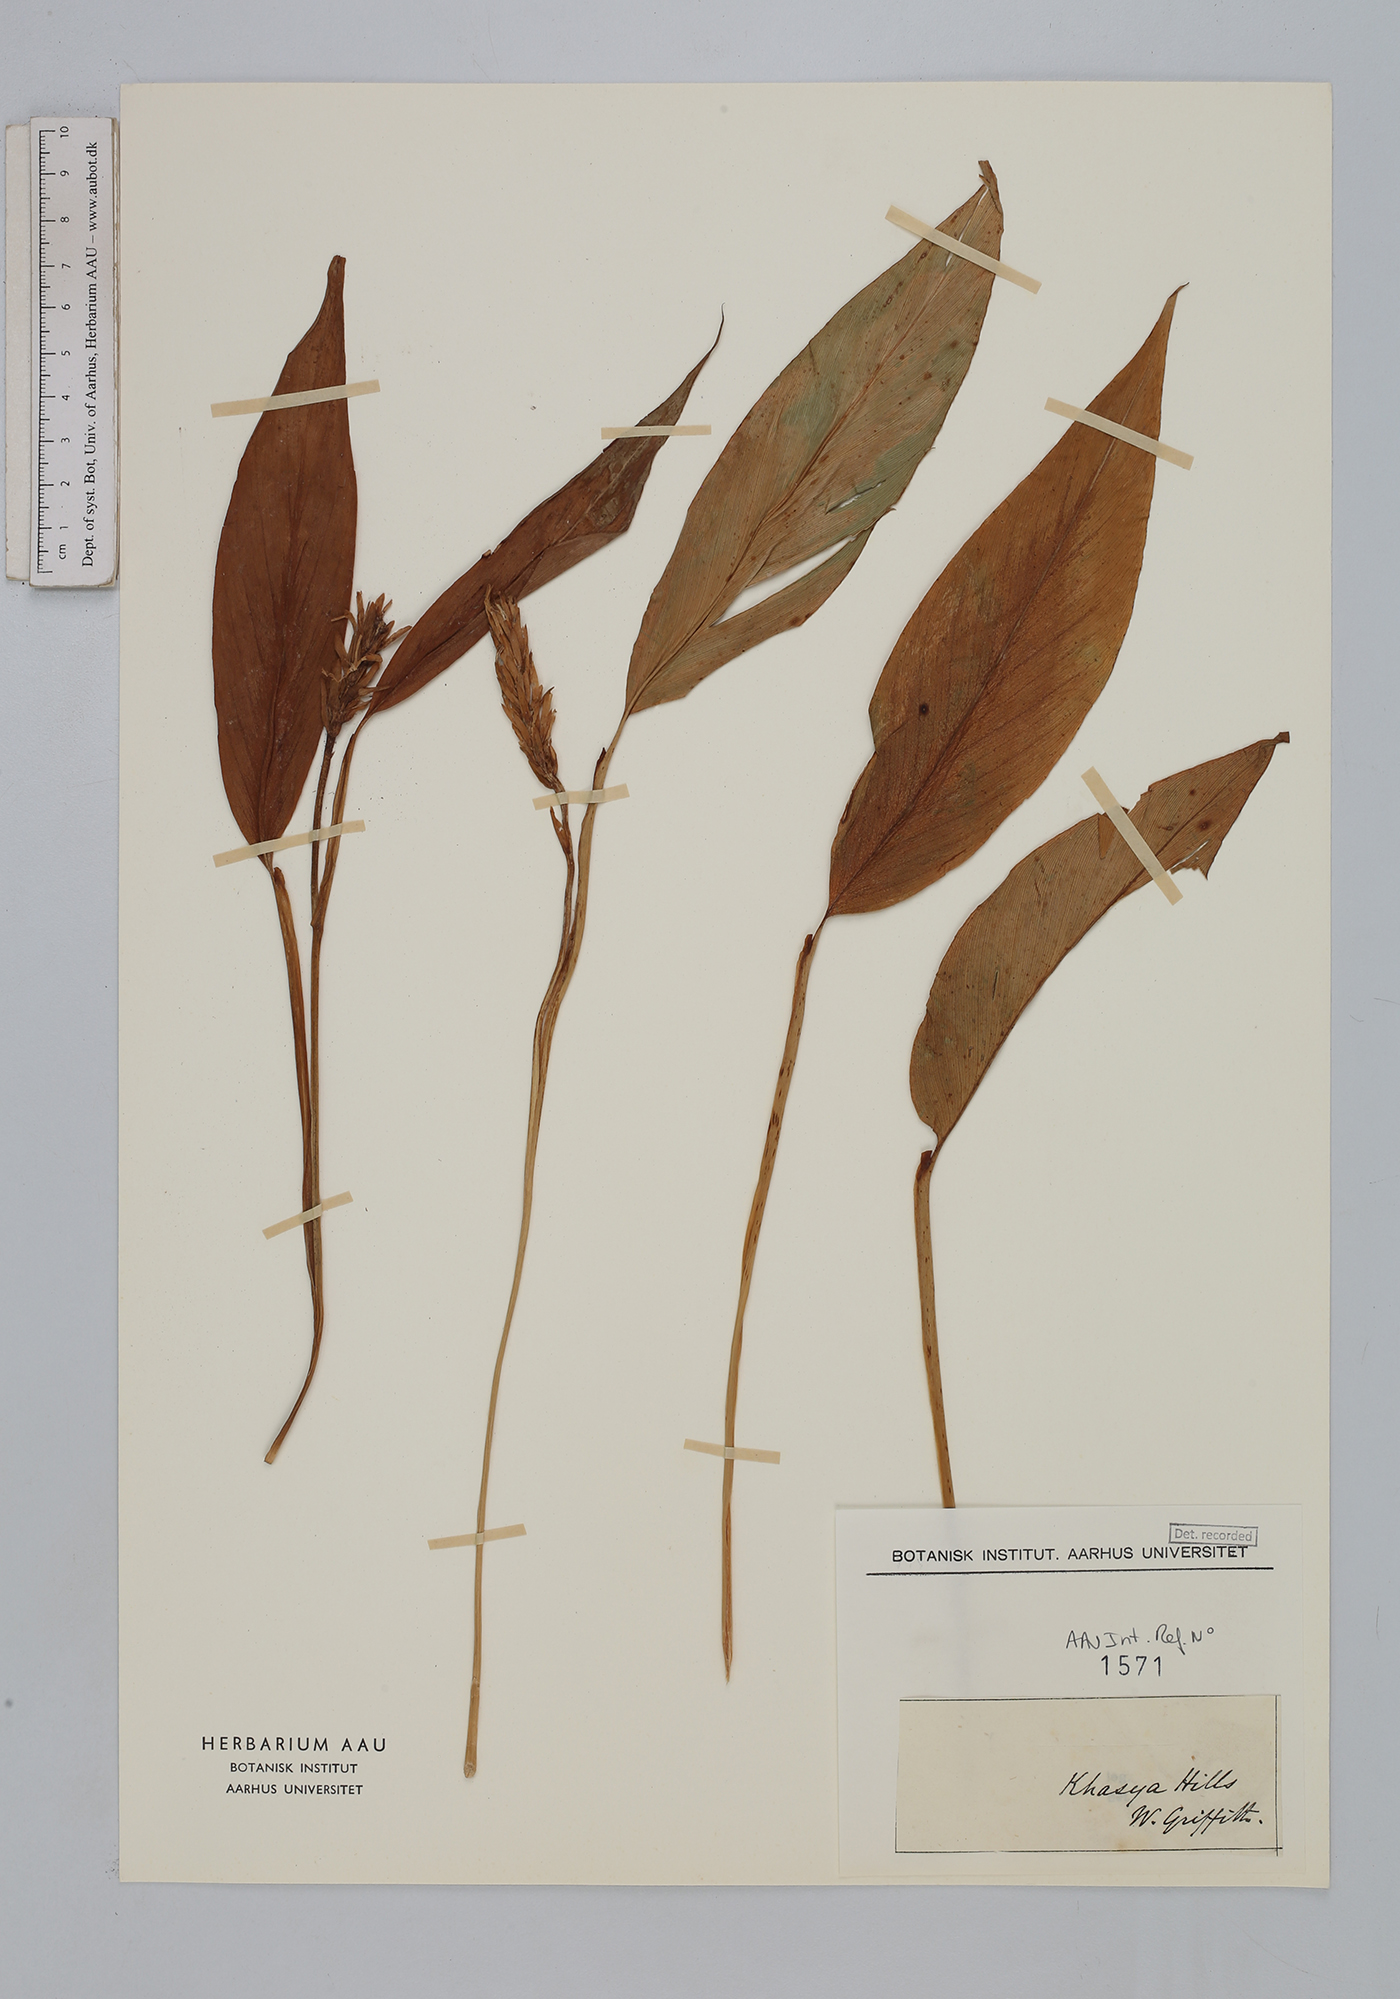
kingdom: Plantae
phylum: Tracheophyta
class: Liliopsida
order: Zingiberales
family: Zingiberaceae
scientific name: Zingiberaceae
